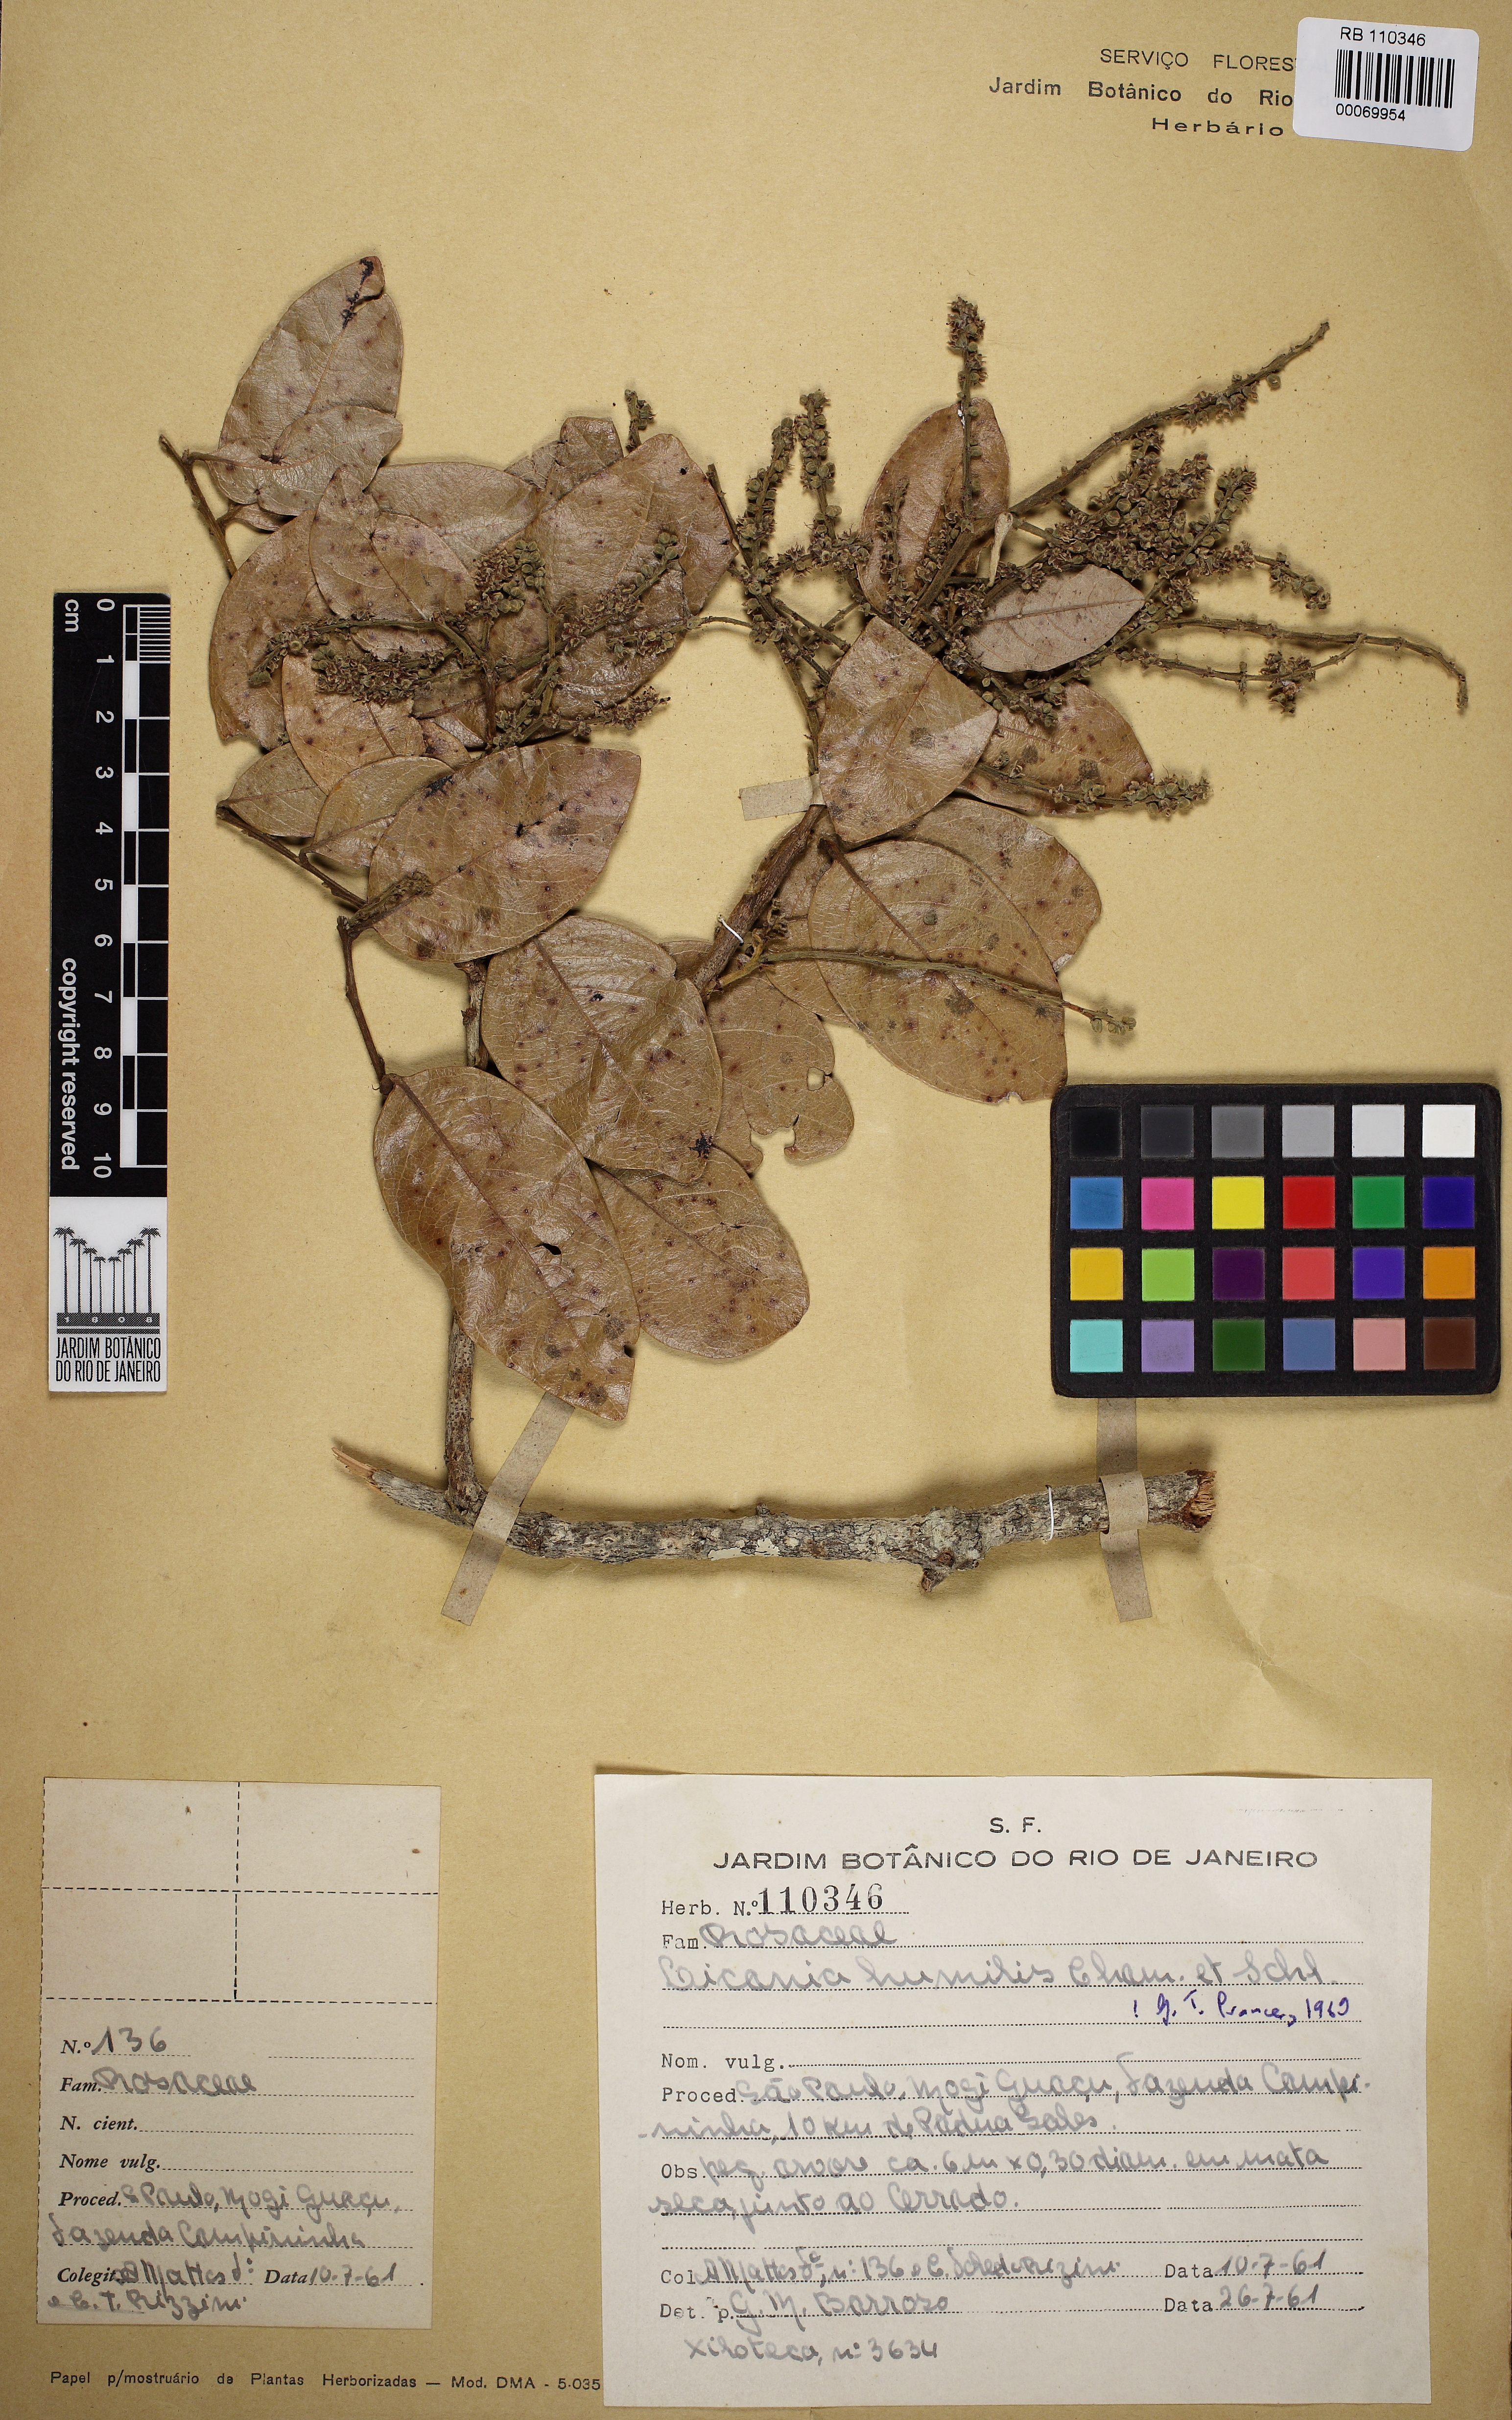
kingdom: Plantae
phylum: Tracheophyta
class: Magnoliopsida
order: Malpighiales
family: Chrysobalanaceae
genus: Leptobalanus
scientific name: Leptobalanus humilis
